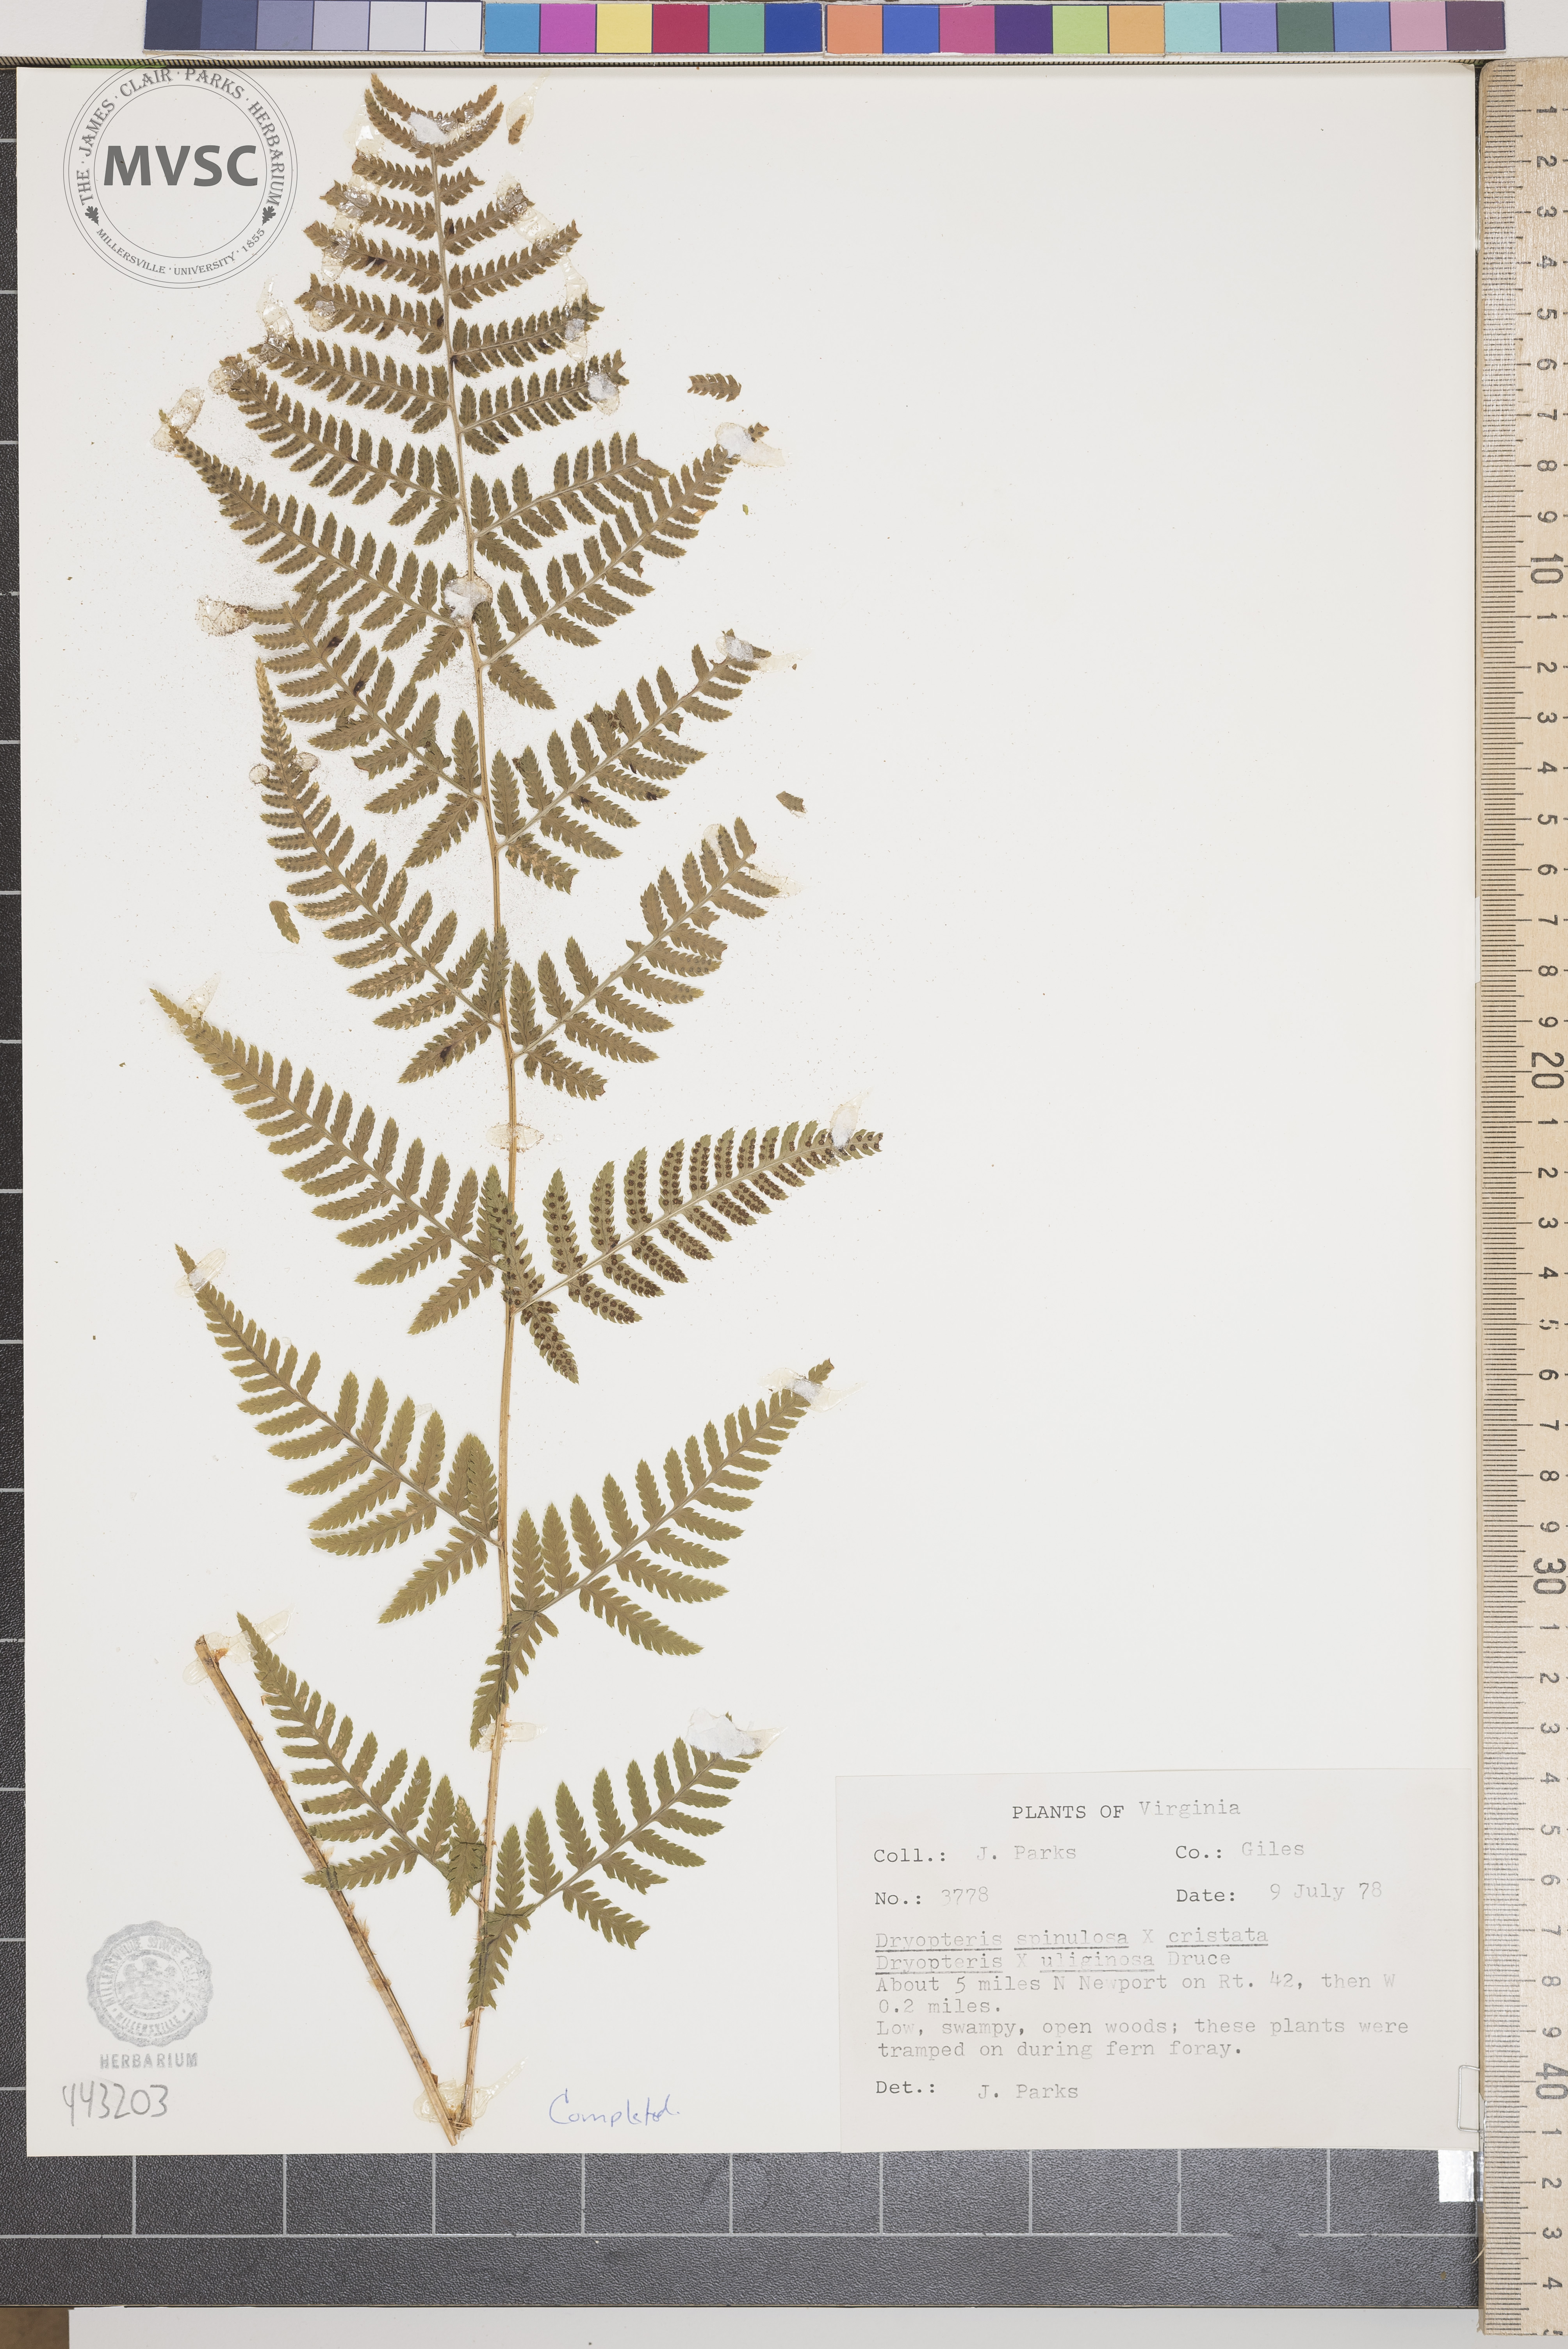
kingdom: Plantae
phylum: Tracheophyta
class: Polypodiopsida
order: Polypodiales
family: Dryopteridaceae
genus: Dryopteris
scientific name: Dryopteris
